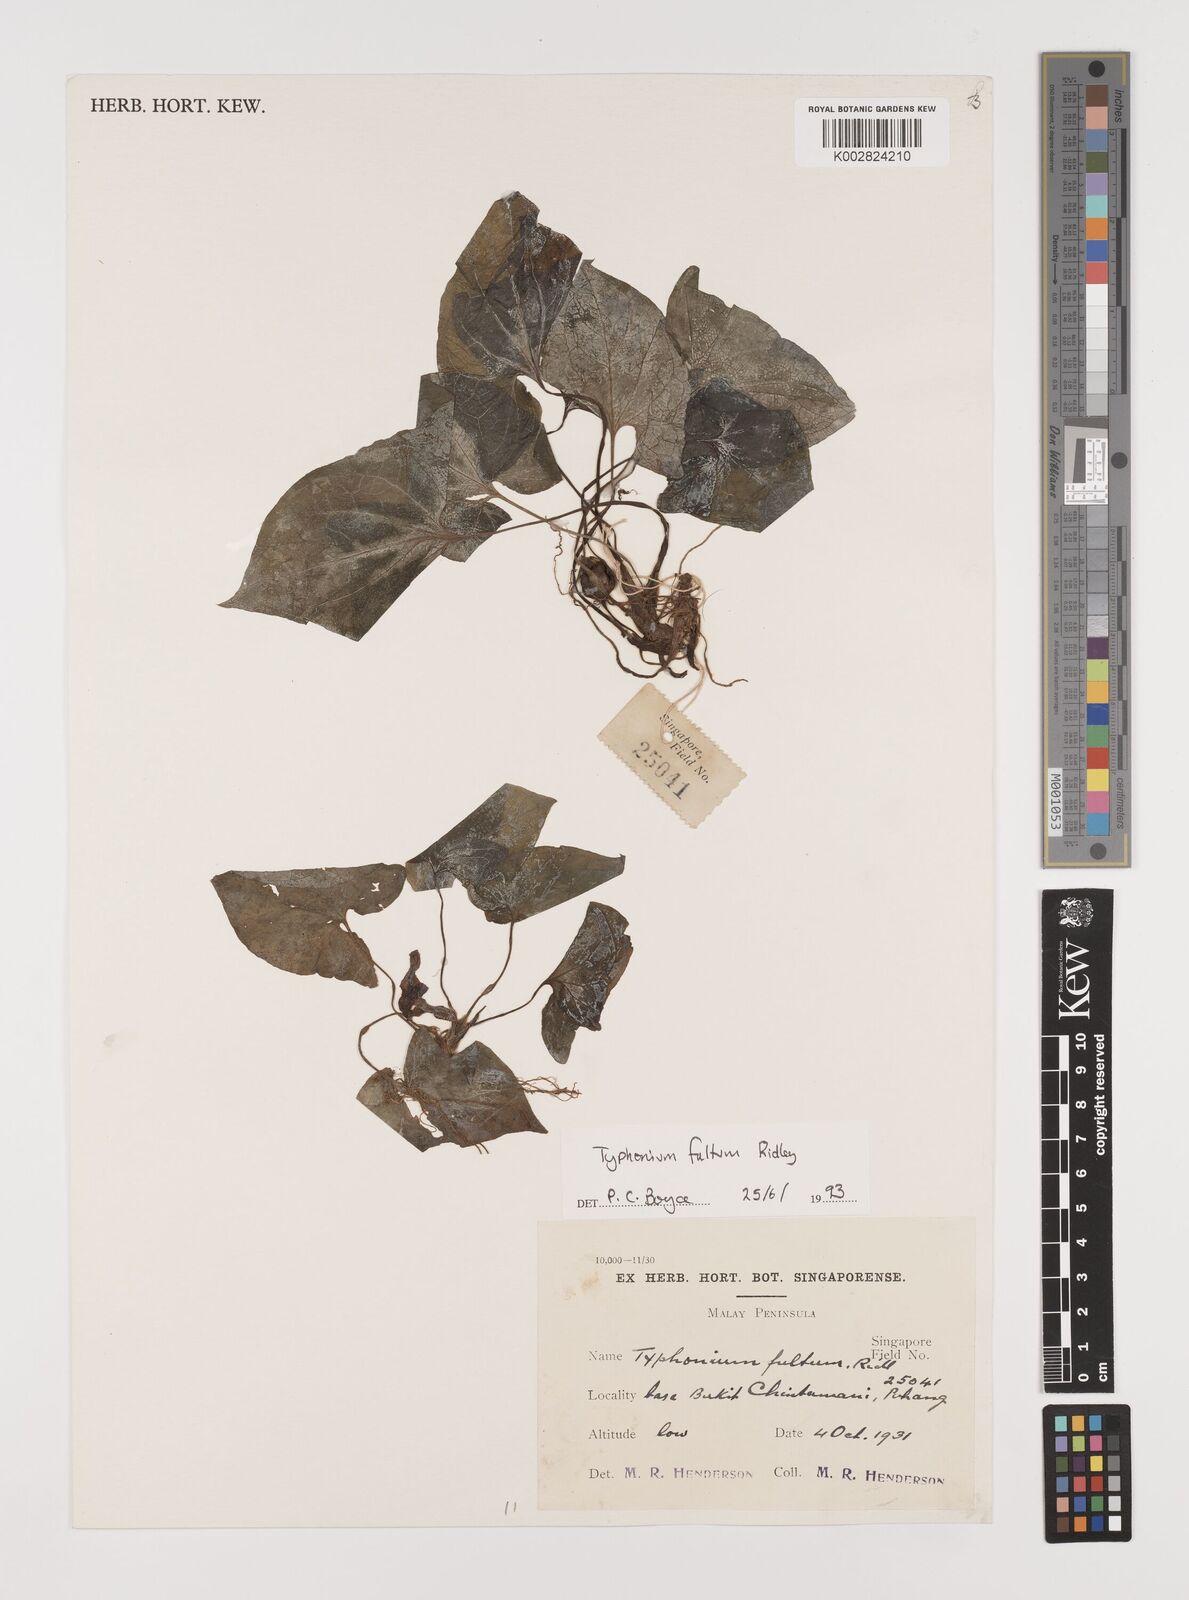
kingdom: Plantae
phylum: Tracheophyta
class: Liliopsida
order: Alismatales
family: Araceae
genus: Typhonium
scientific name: Typhonium fultum
